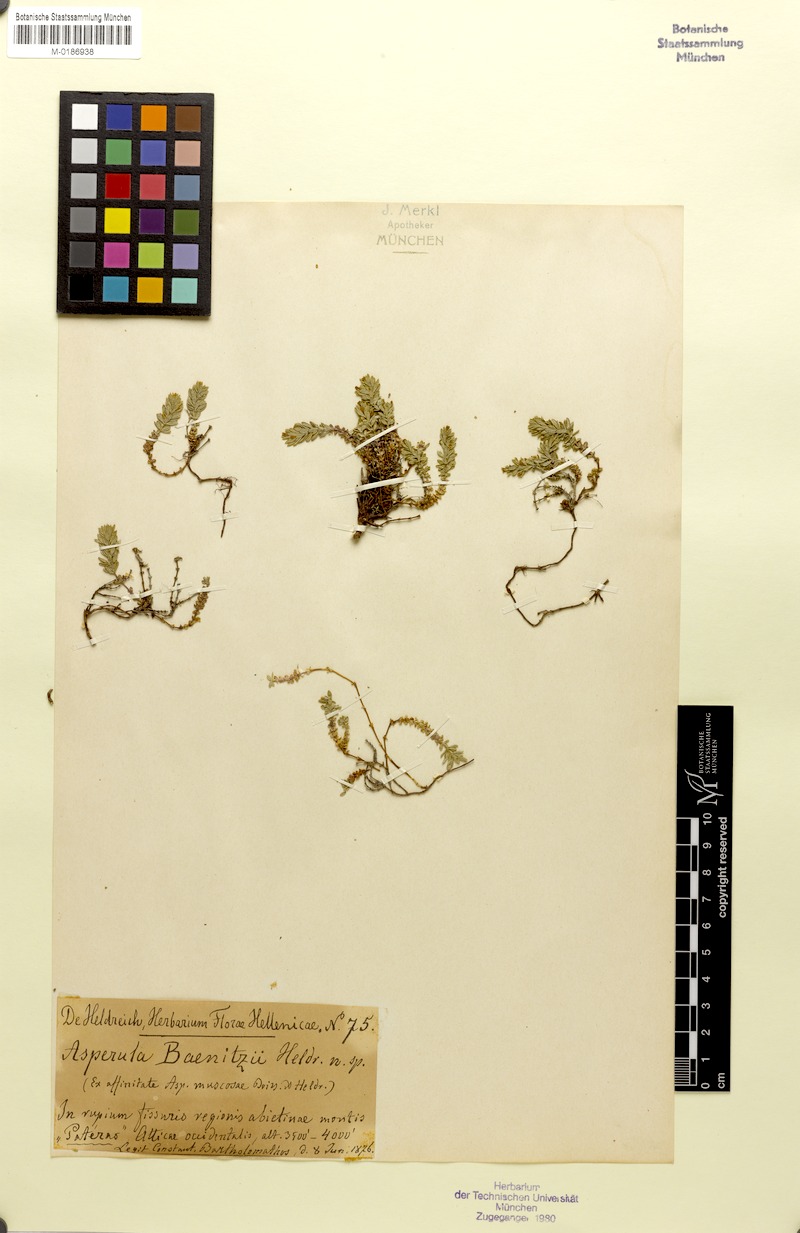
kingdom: Plantae
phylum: Tracheophyta
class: Magnoliopsida
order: Gentianales
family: Rubiaceae
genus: Thliphthisa
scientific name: Thliphthisa baenitzii
